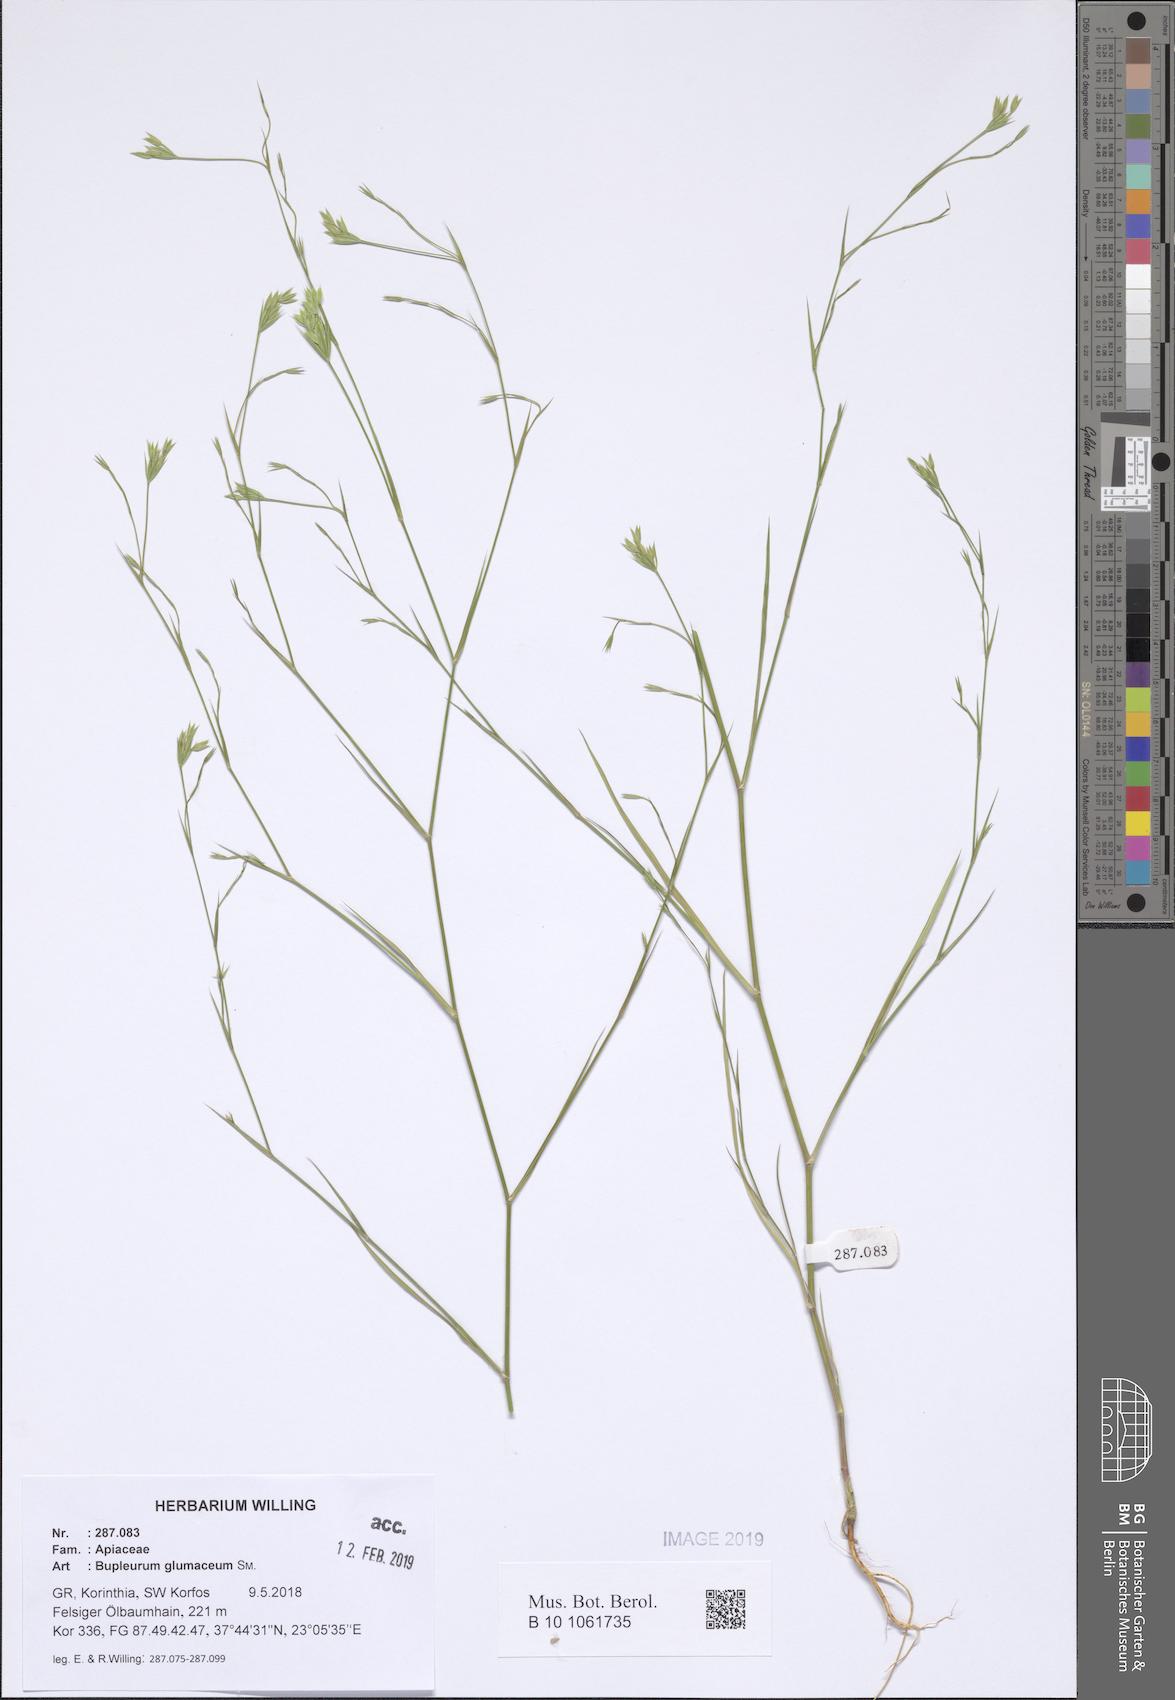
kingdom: Plantae
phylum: Tracheophyta
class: Magnoliopsida
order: Apiales
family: Apiaceae
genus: Bupleurum
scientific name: Bupleurum glumaceum
